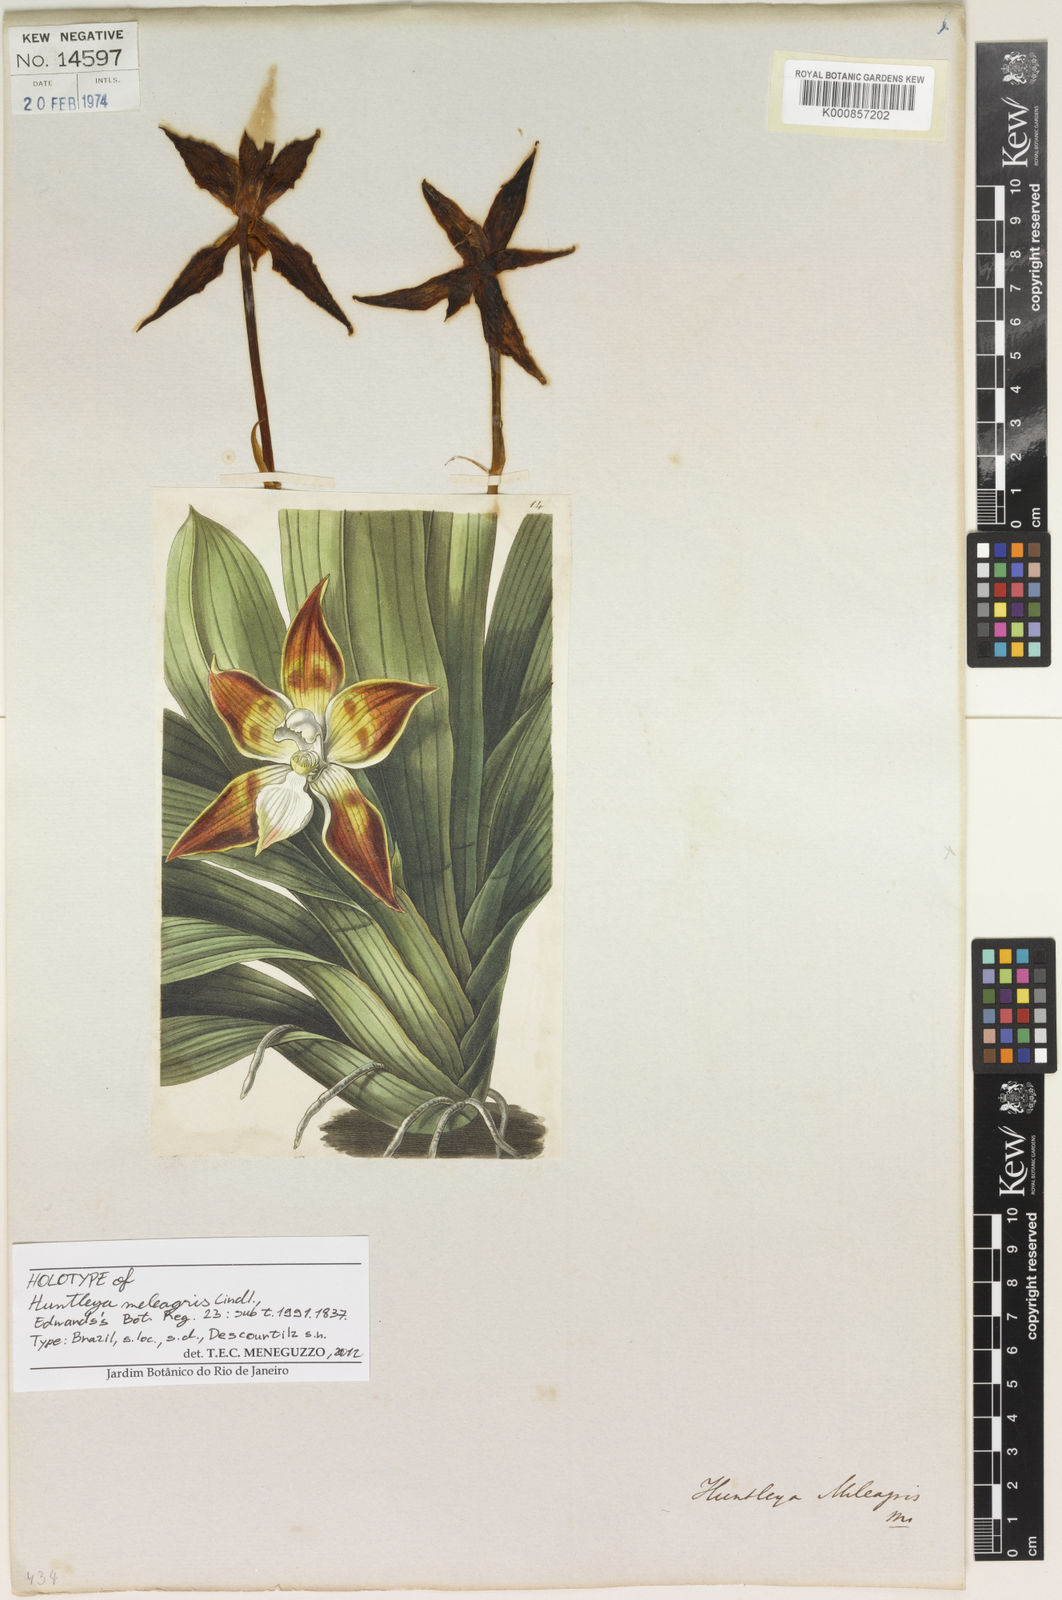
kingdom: Plantae
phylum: Tracheophyta
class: Liliopsida
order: Asparagales
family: Orchidaceae
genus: Huntleya
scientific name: Huntleya meleagris
